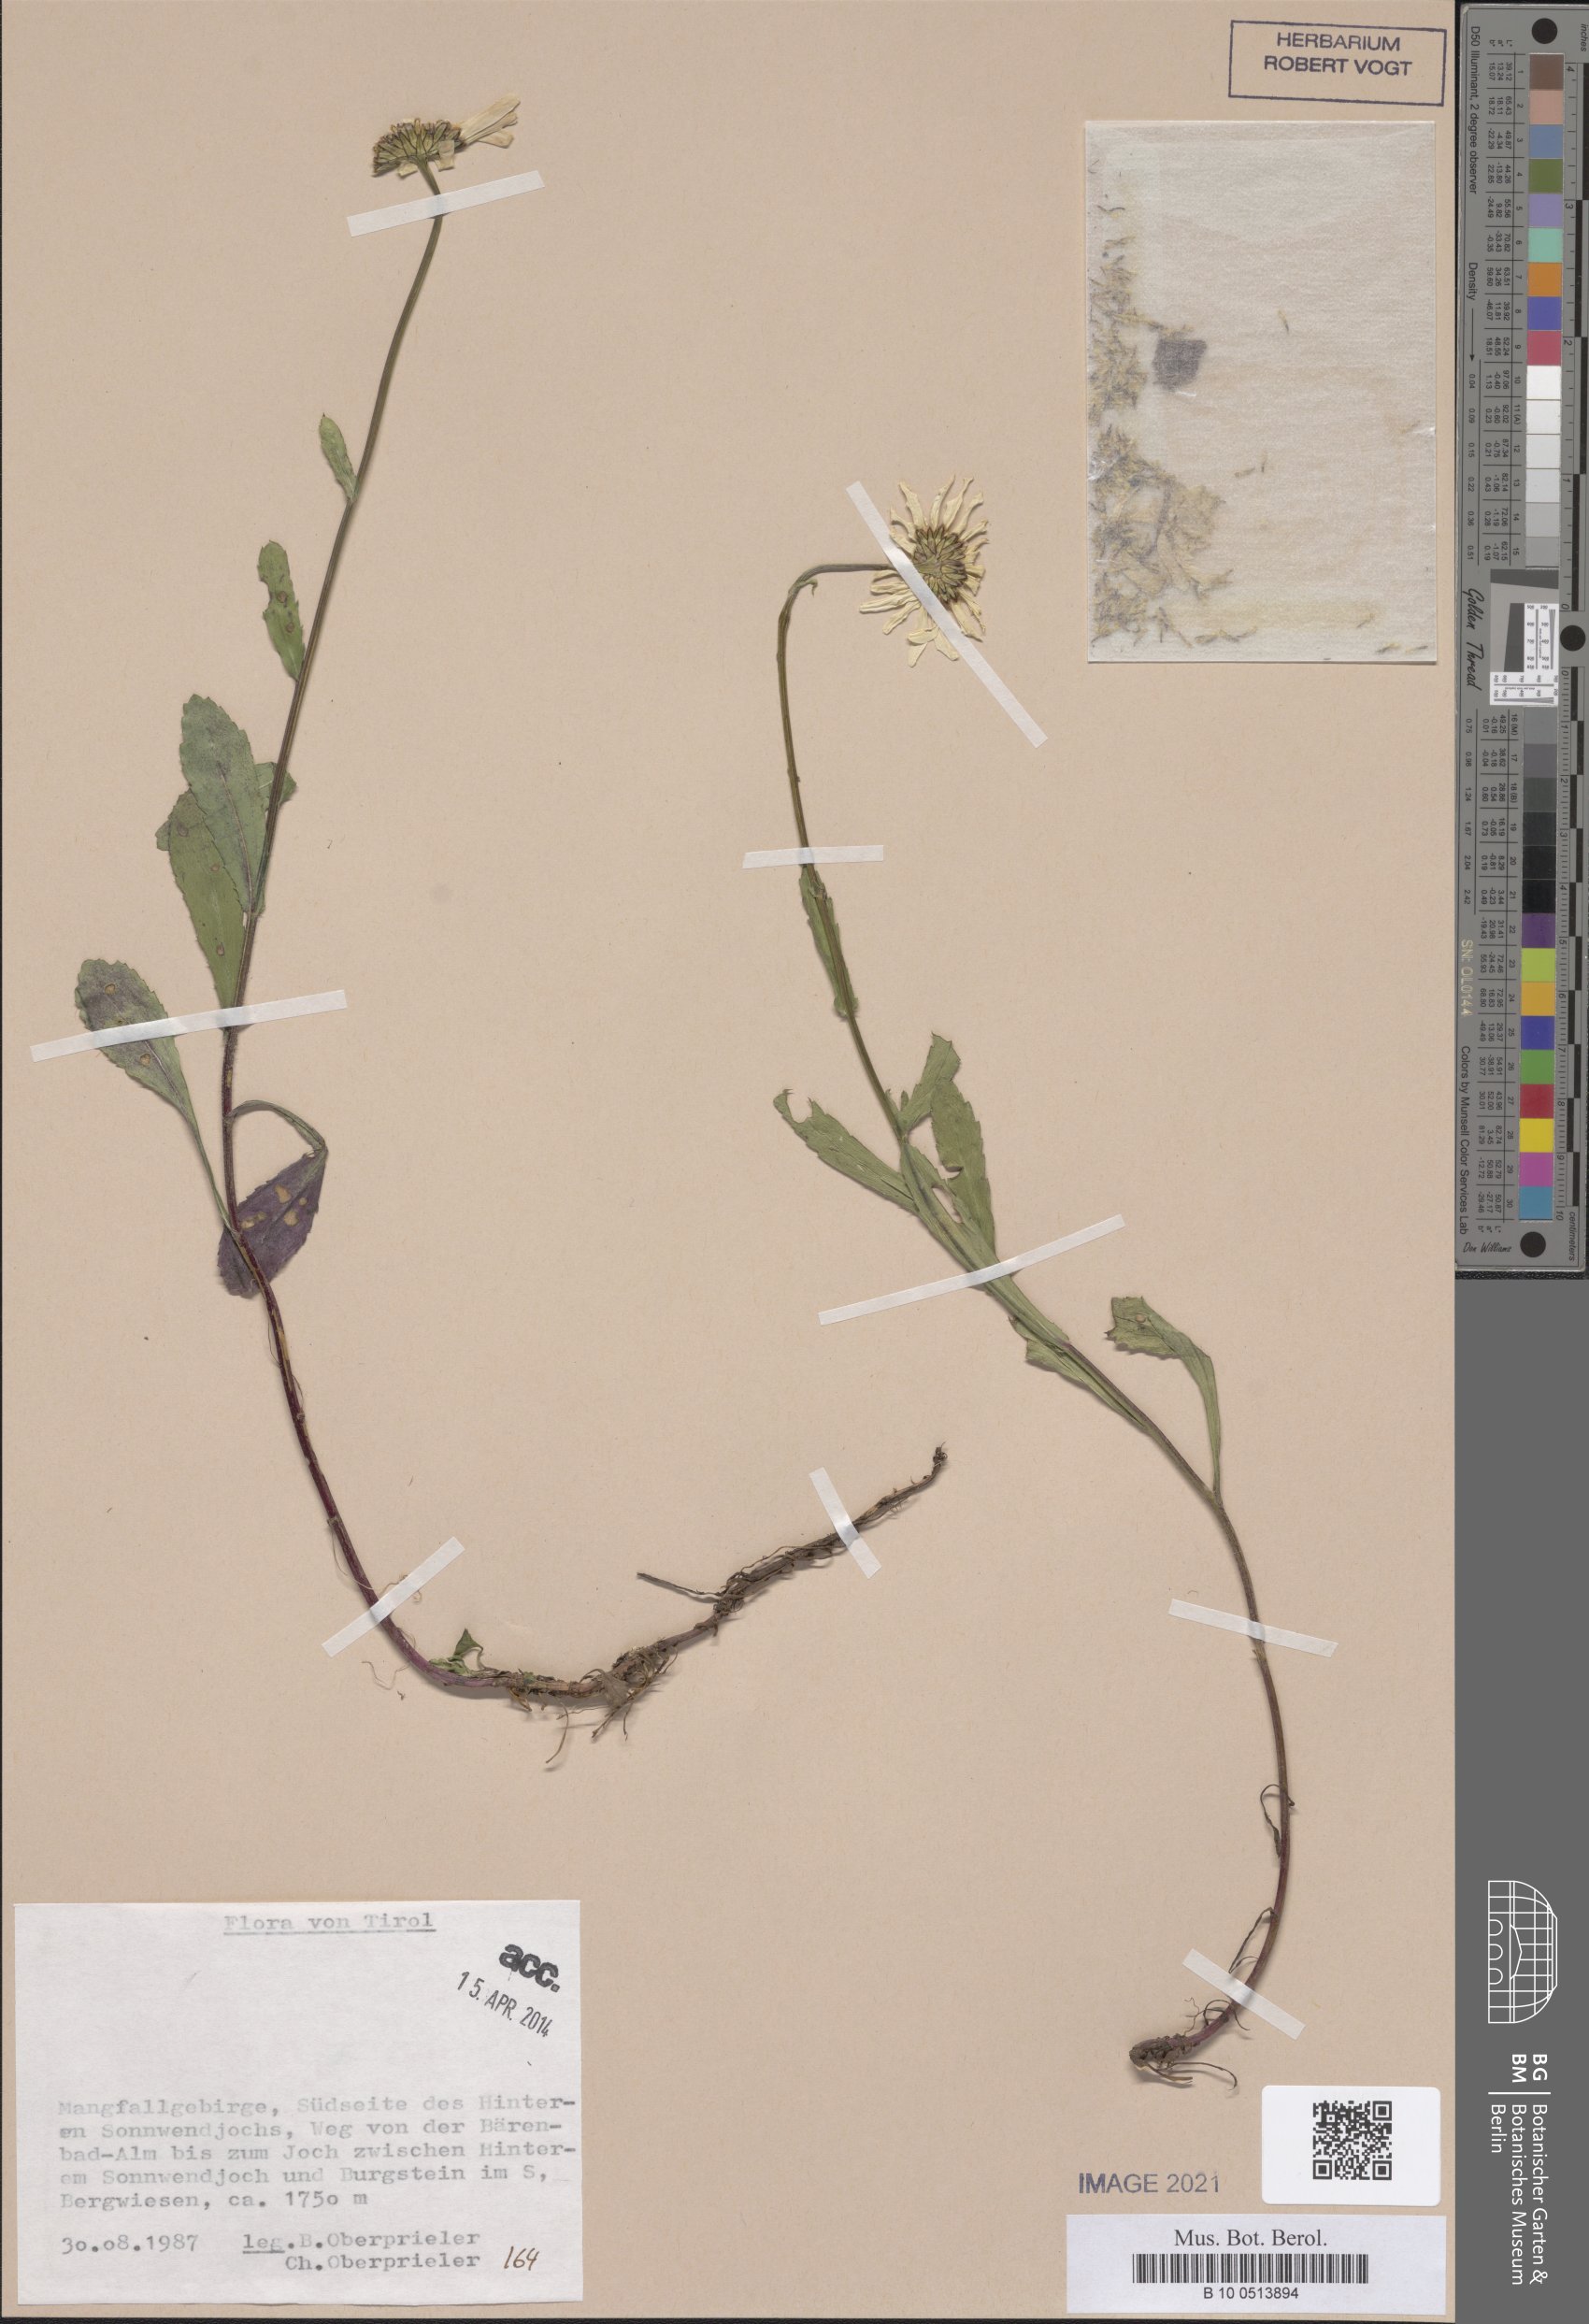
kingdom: Plantae
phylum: Tracheophyta
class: Magnoliopsida
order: Asterales
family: Asteraceae
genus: Leucanthemum
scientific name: Leucanthemum ircutianum
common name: Daisy
